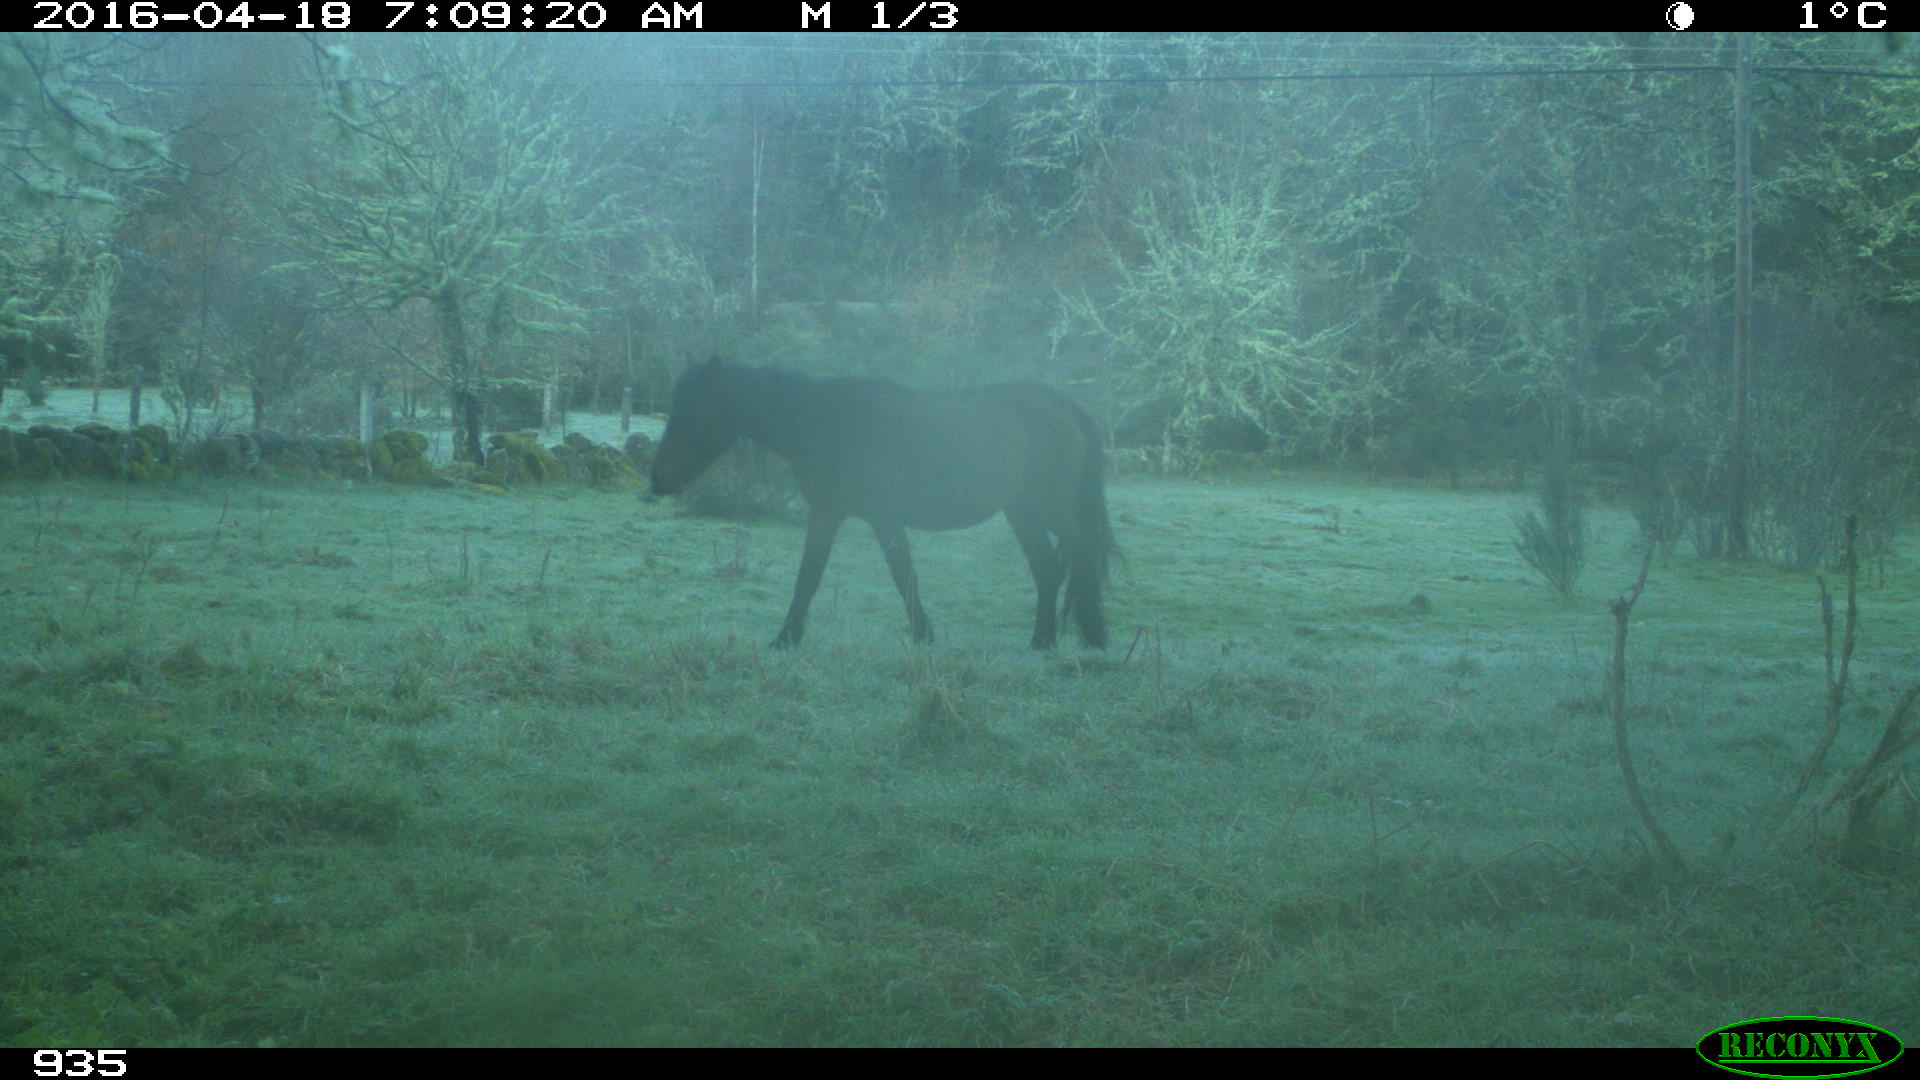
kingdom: Animalia
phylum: Chordata
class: Mammalia
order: Perissodactyla
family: Equidae
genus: Equus
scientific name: Equus caballus
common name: Horse
